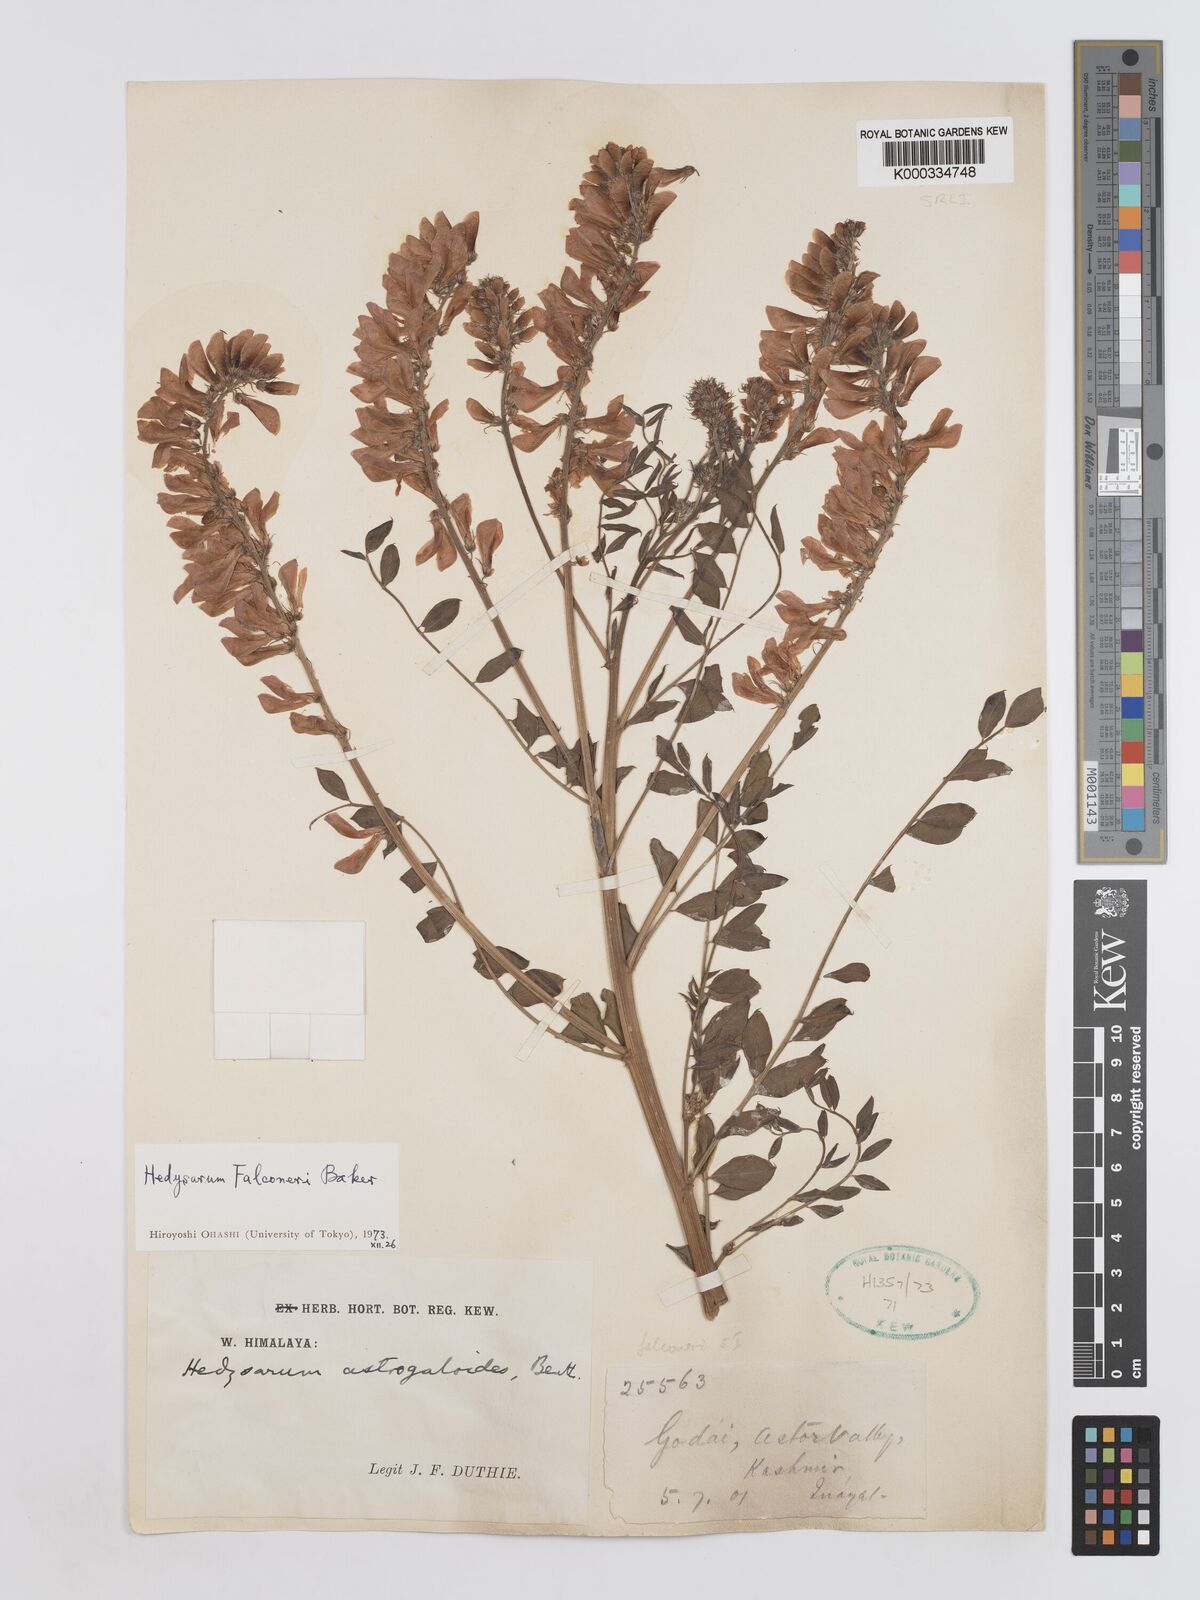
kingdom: Plantae
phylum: Tracheophyta
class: Magnoliopsida
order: Fabales
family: Fabaceae
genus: Hedysarum
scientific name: Hedysarum falconeri
